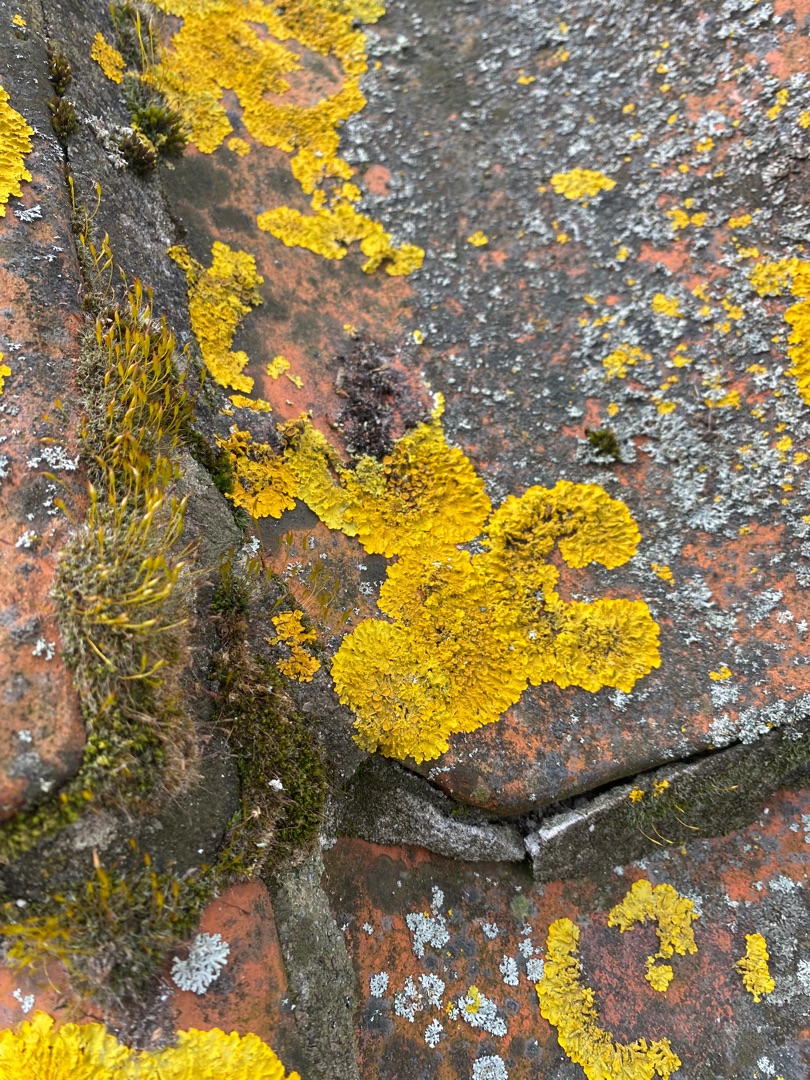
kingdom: Fungi
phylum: Ascomycota
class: Lecanoromycetes
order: Teloschistales
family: Teloschistaceae
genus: Xanthoria
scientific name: Xanthoria parietina
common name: Almindelig væggelav
